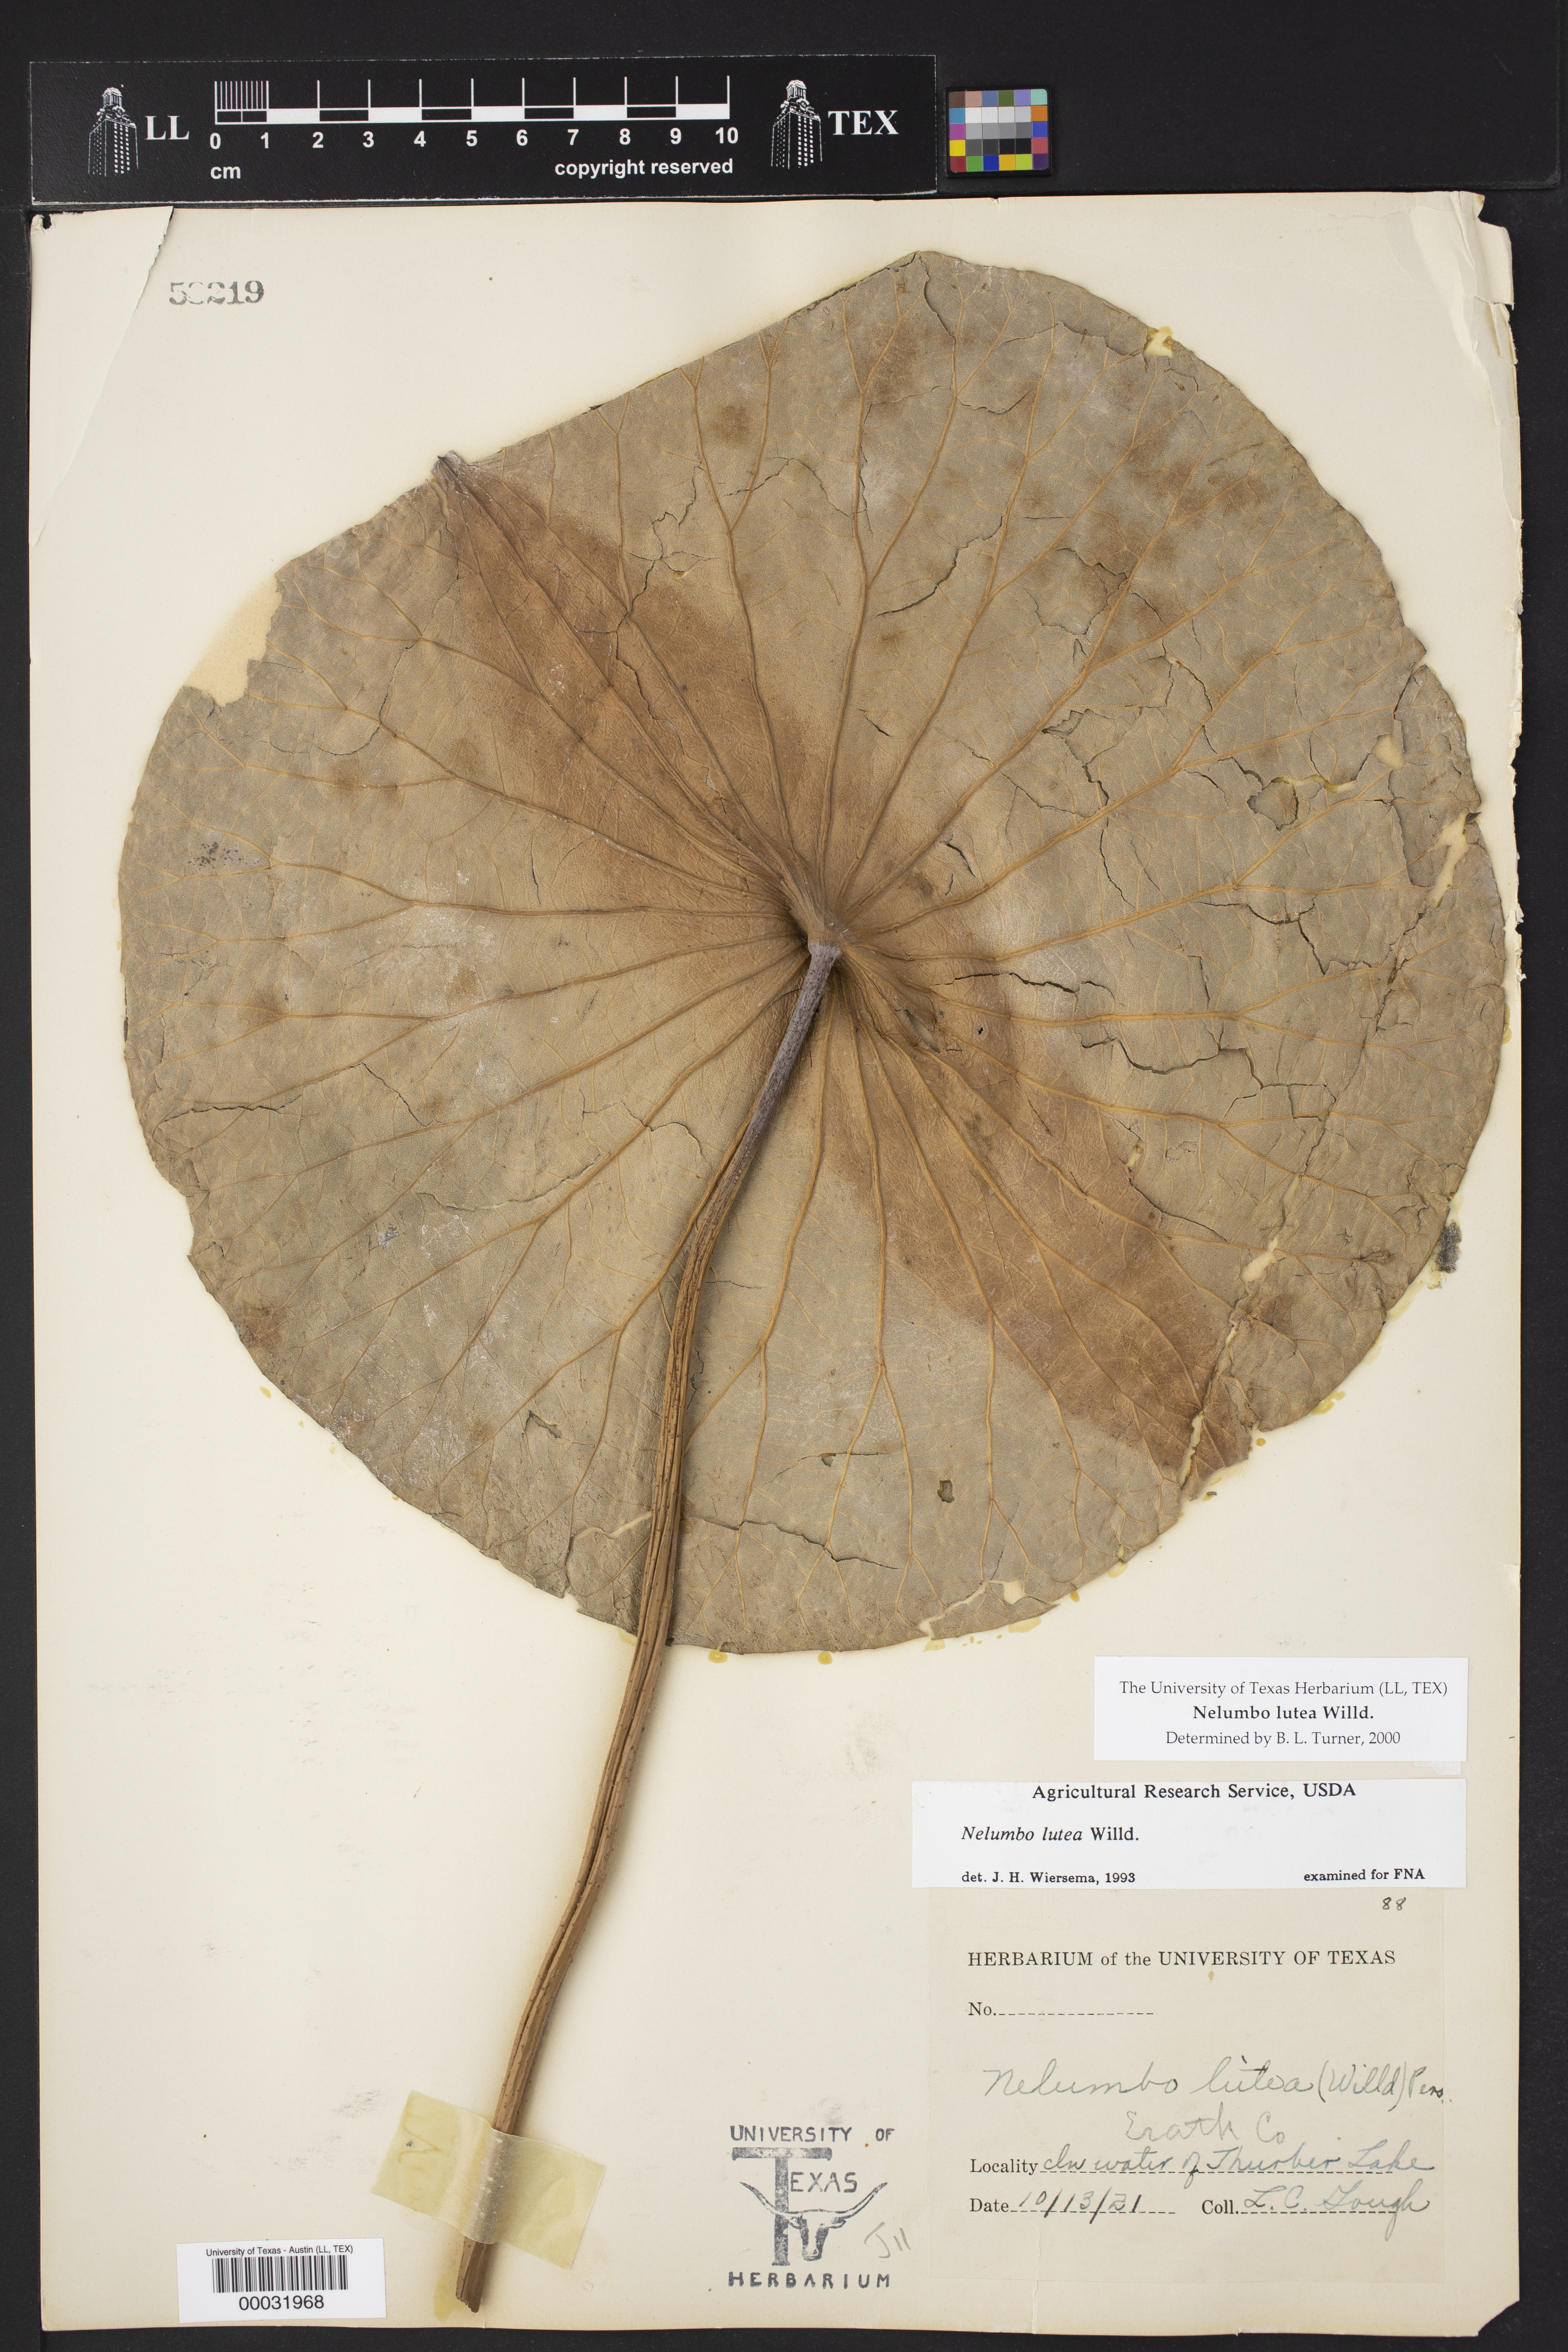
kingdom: Plantae
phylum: Tracheophyta
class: Magnoliopsida
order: Proteales
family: Nelumbonaceae
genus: Nelumbo
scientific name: Nelumbo lutea
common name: American lotus
